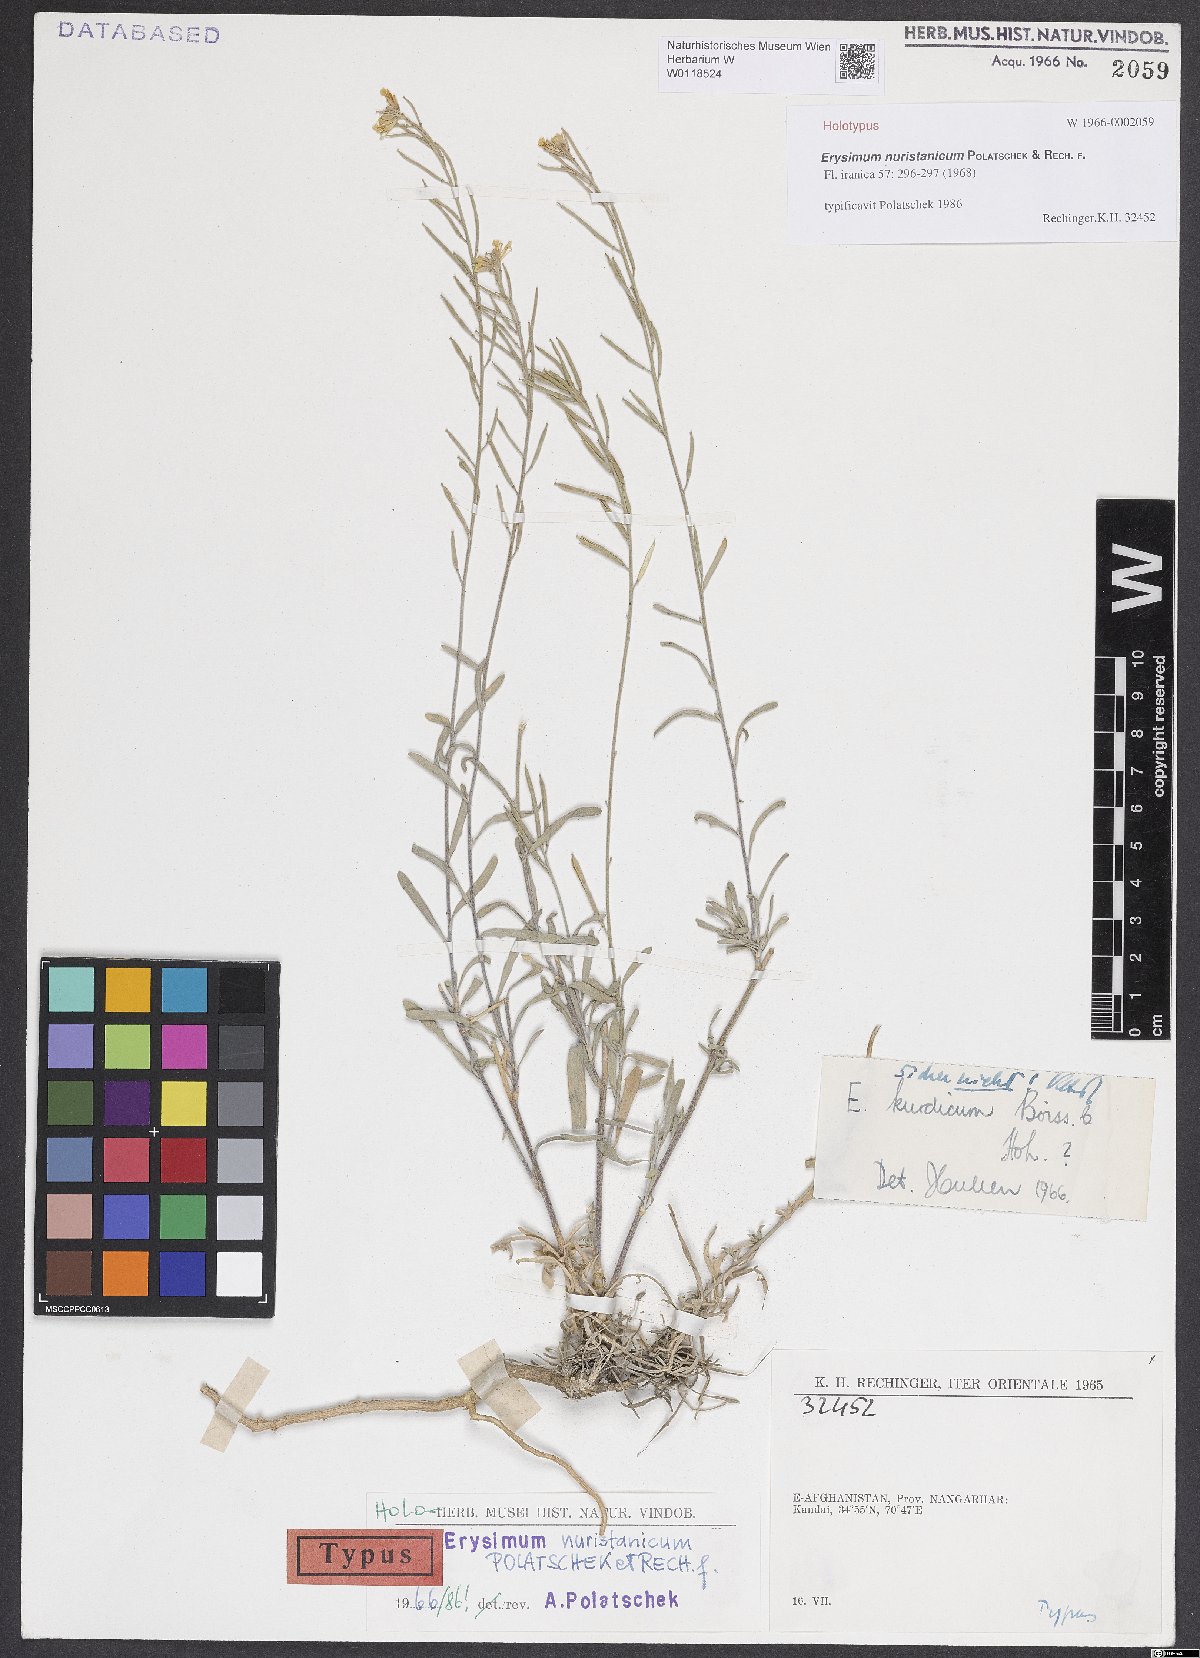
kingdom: Plantae
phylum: Tracheophyta
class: Magnoliopsida
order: Brassicales
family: Brassicaceae
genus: Erysimum
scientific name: Erysimum nuristanicum
